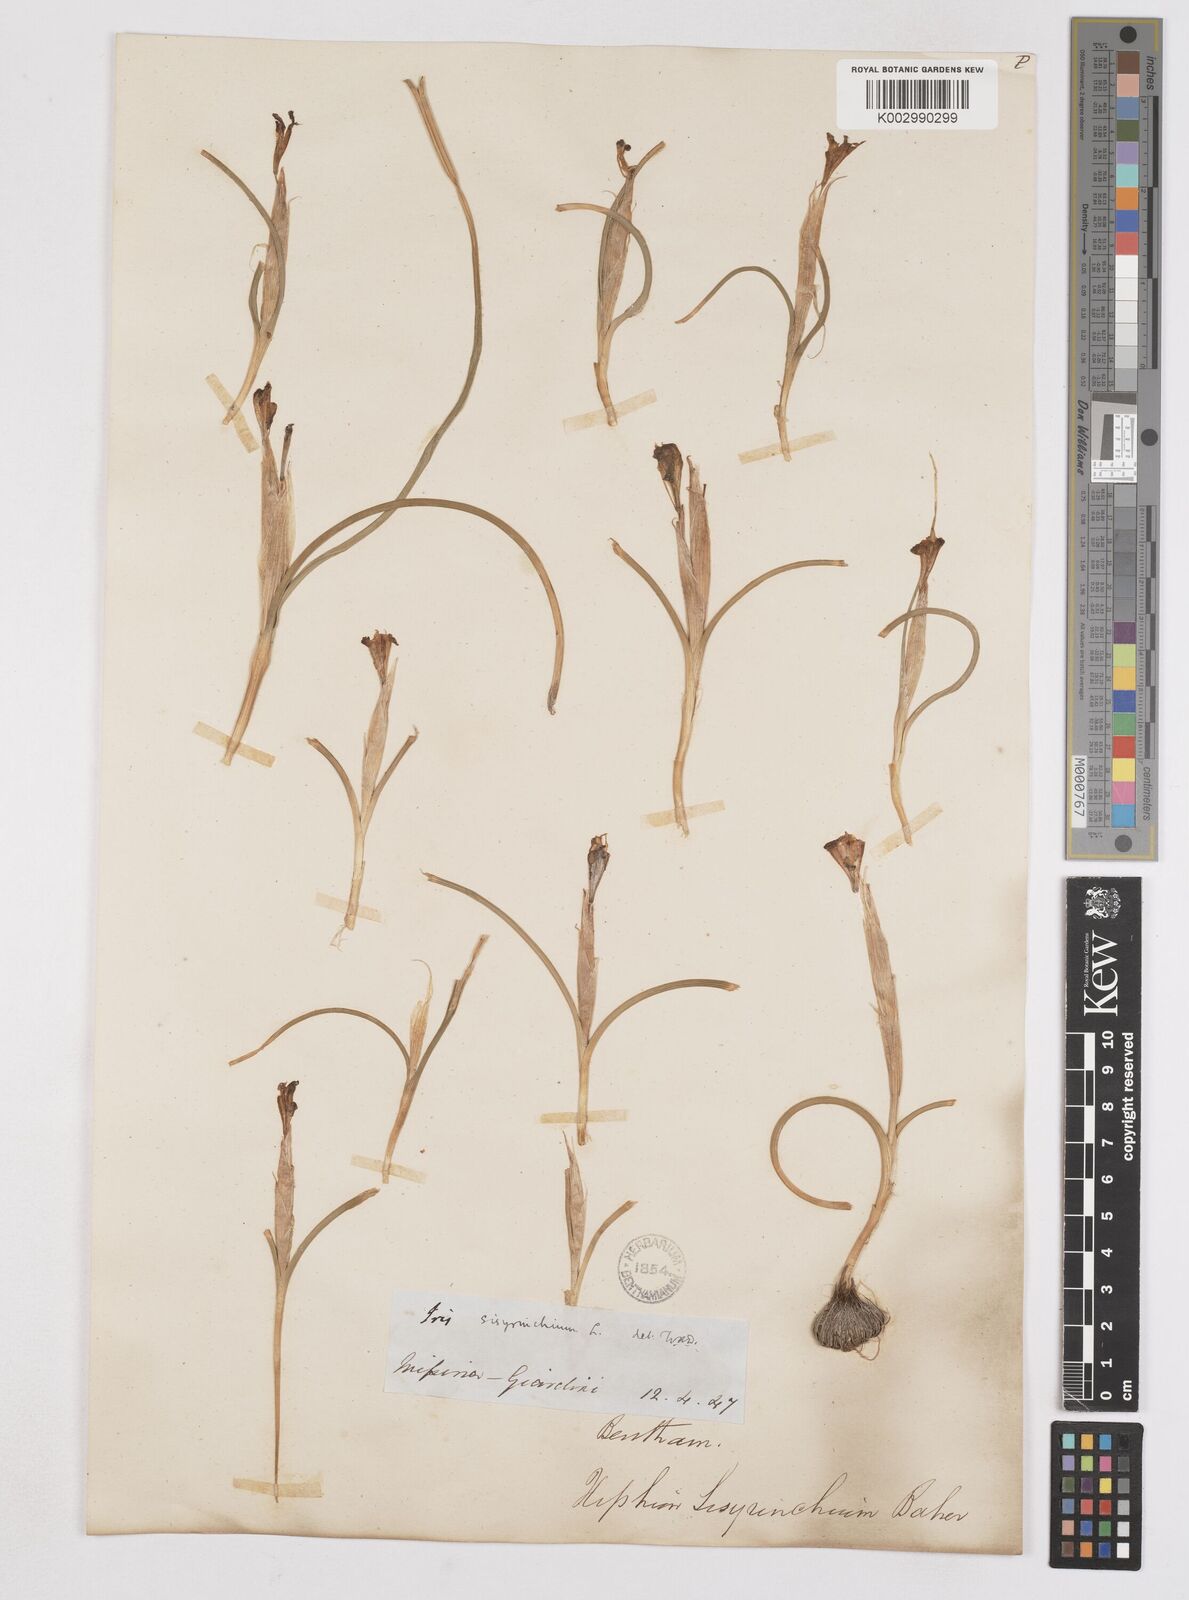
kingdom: Plantae
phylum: Tracheophyta
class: Liliopsida
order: Asparagales
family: Iridaceae
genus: Moraea
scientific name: Moraea sisyrinchium
